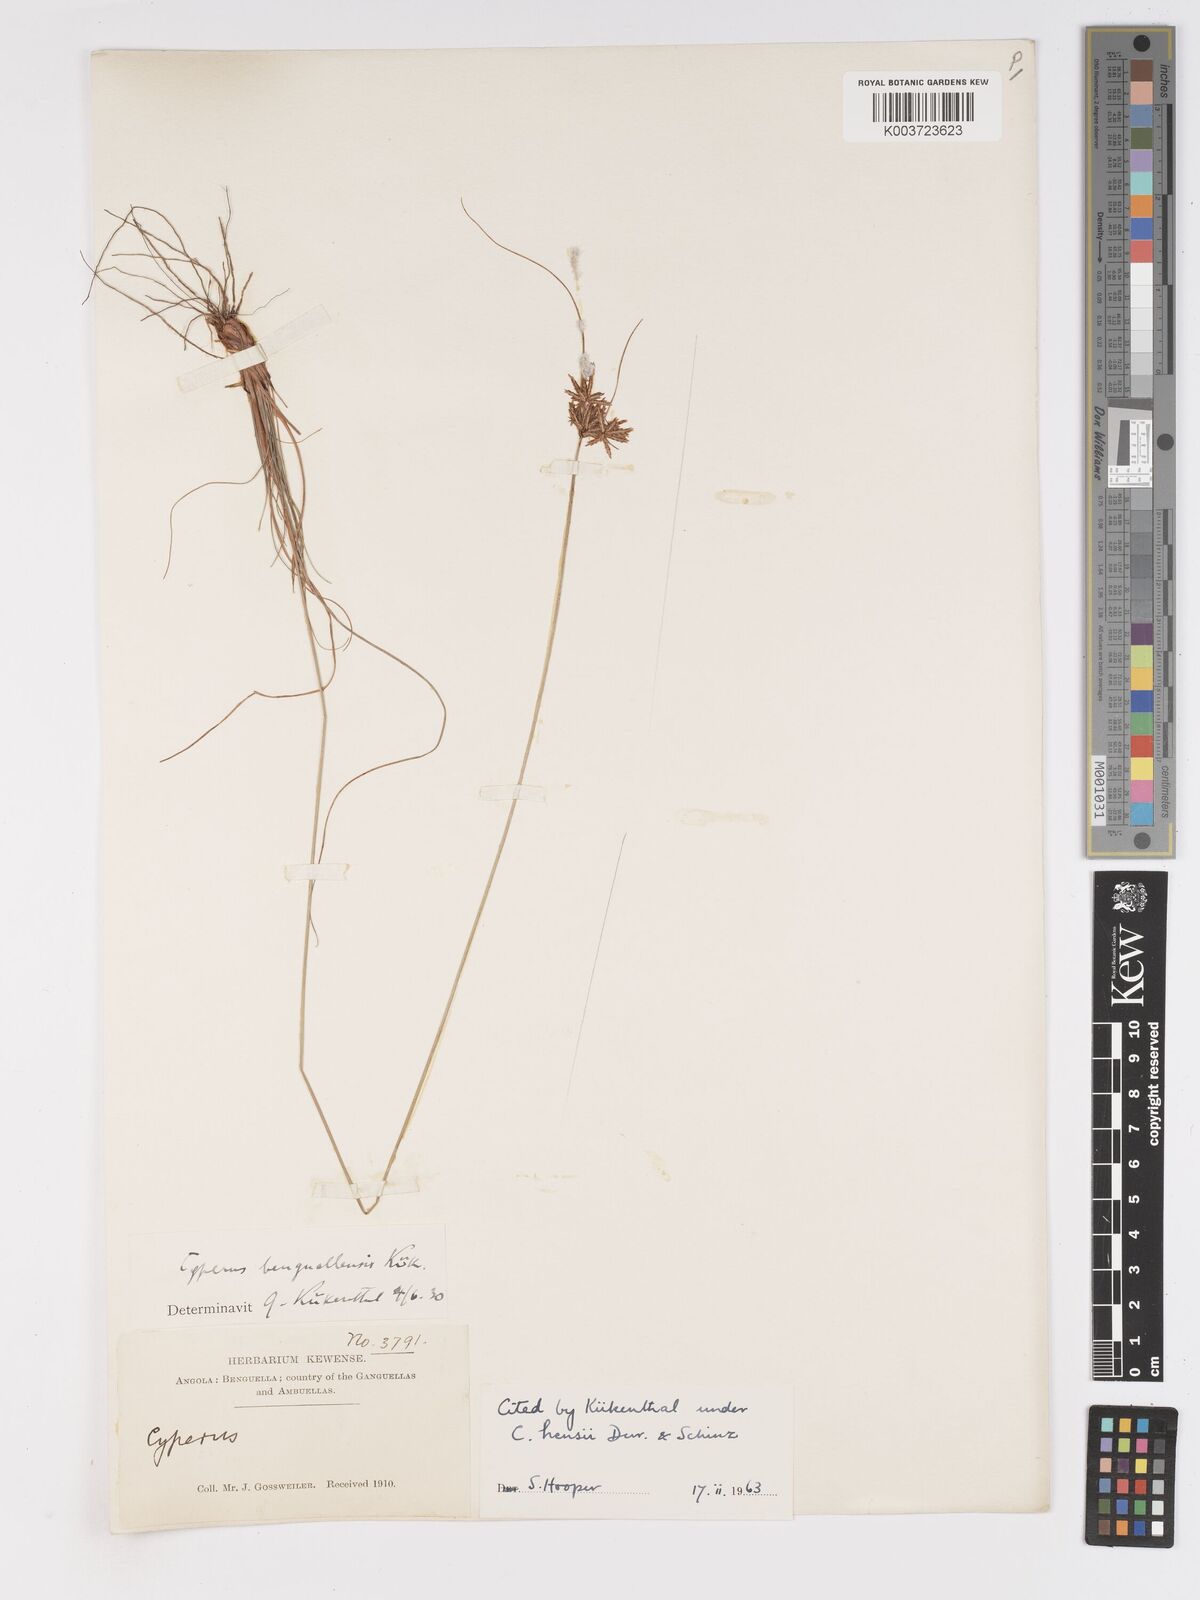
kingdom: Plantae
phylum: Tracheophyta
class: Liliopsida
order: Poales
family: Cyperaceae
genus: Cyperus
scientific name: Cyperus
